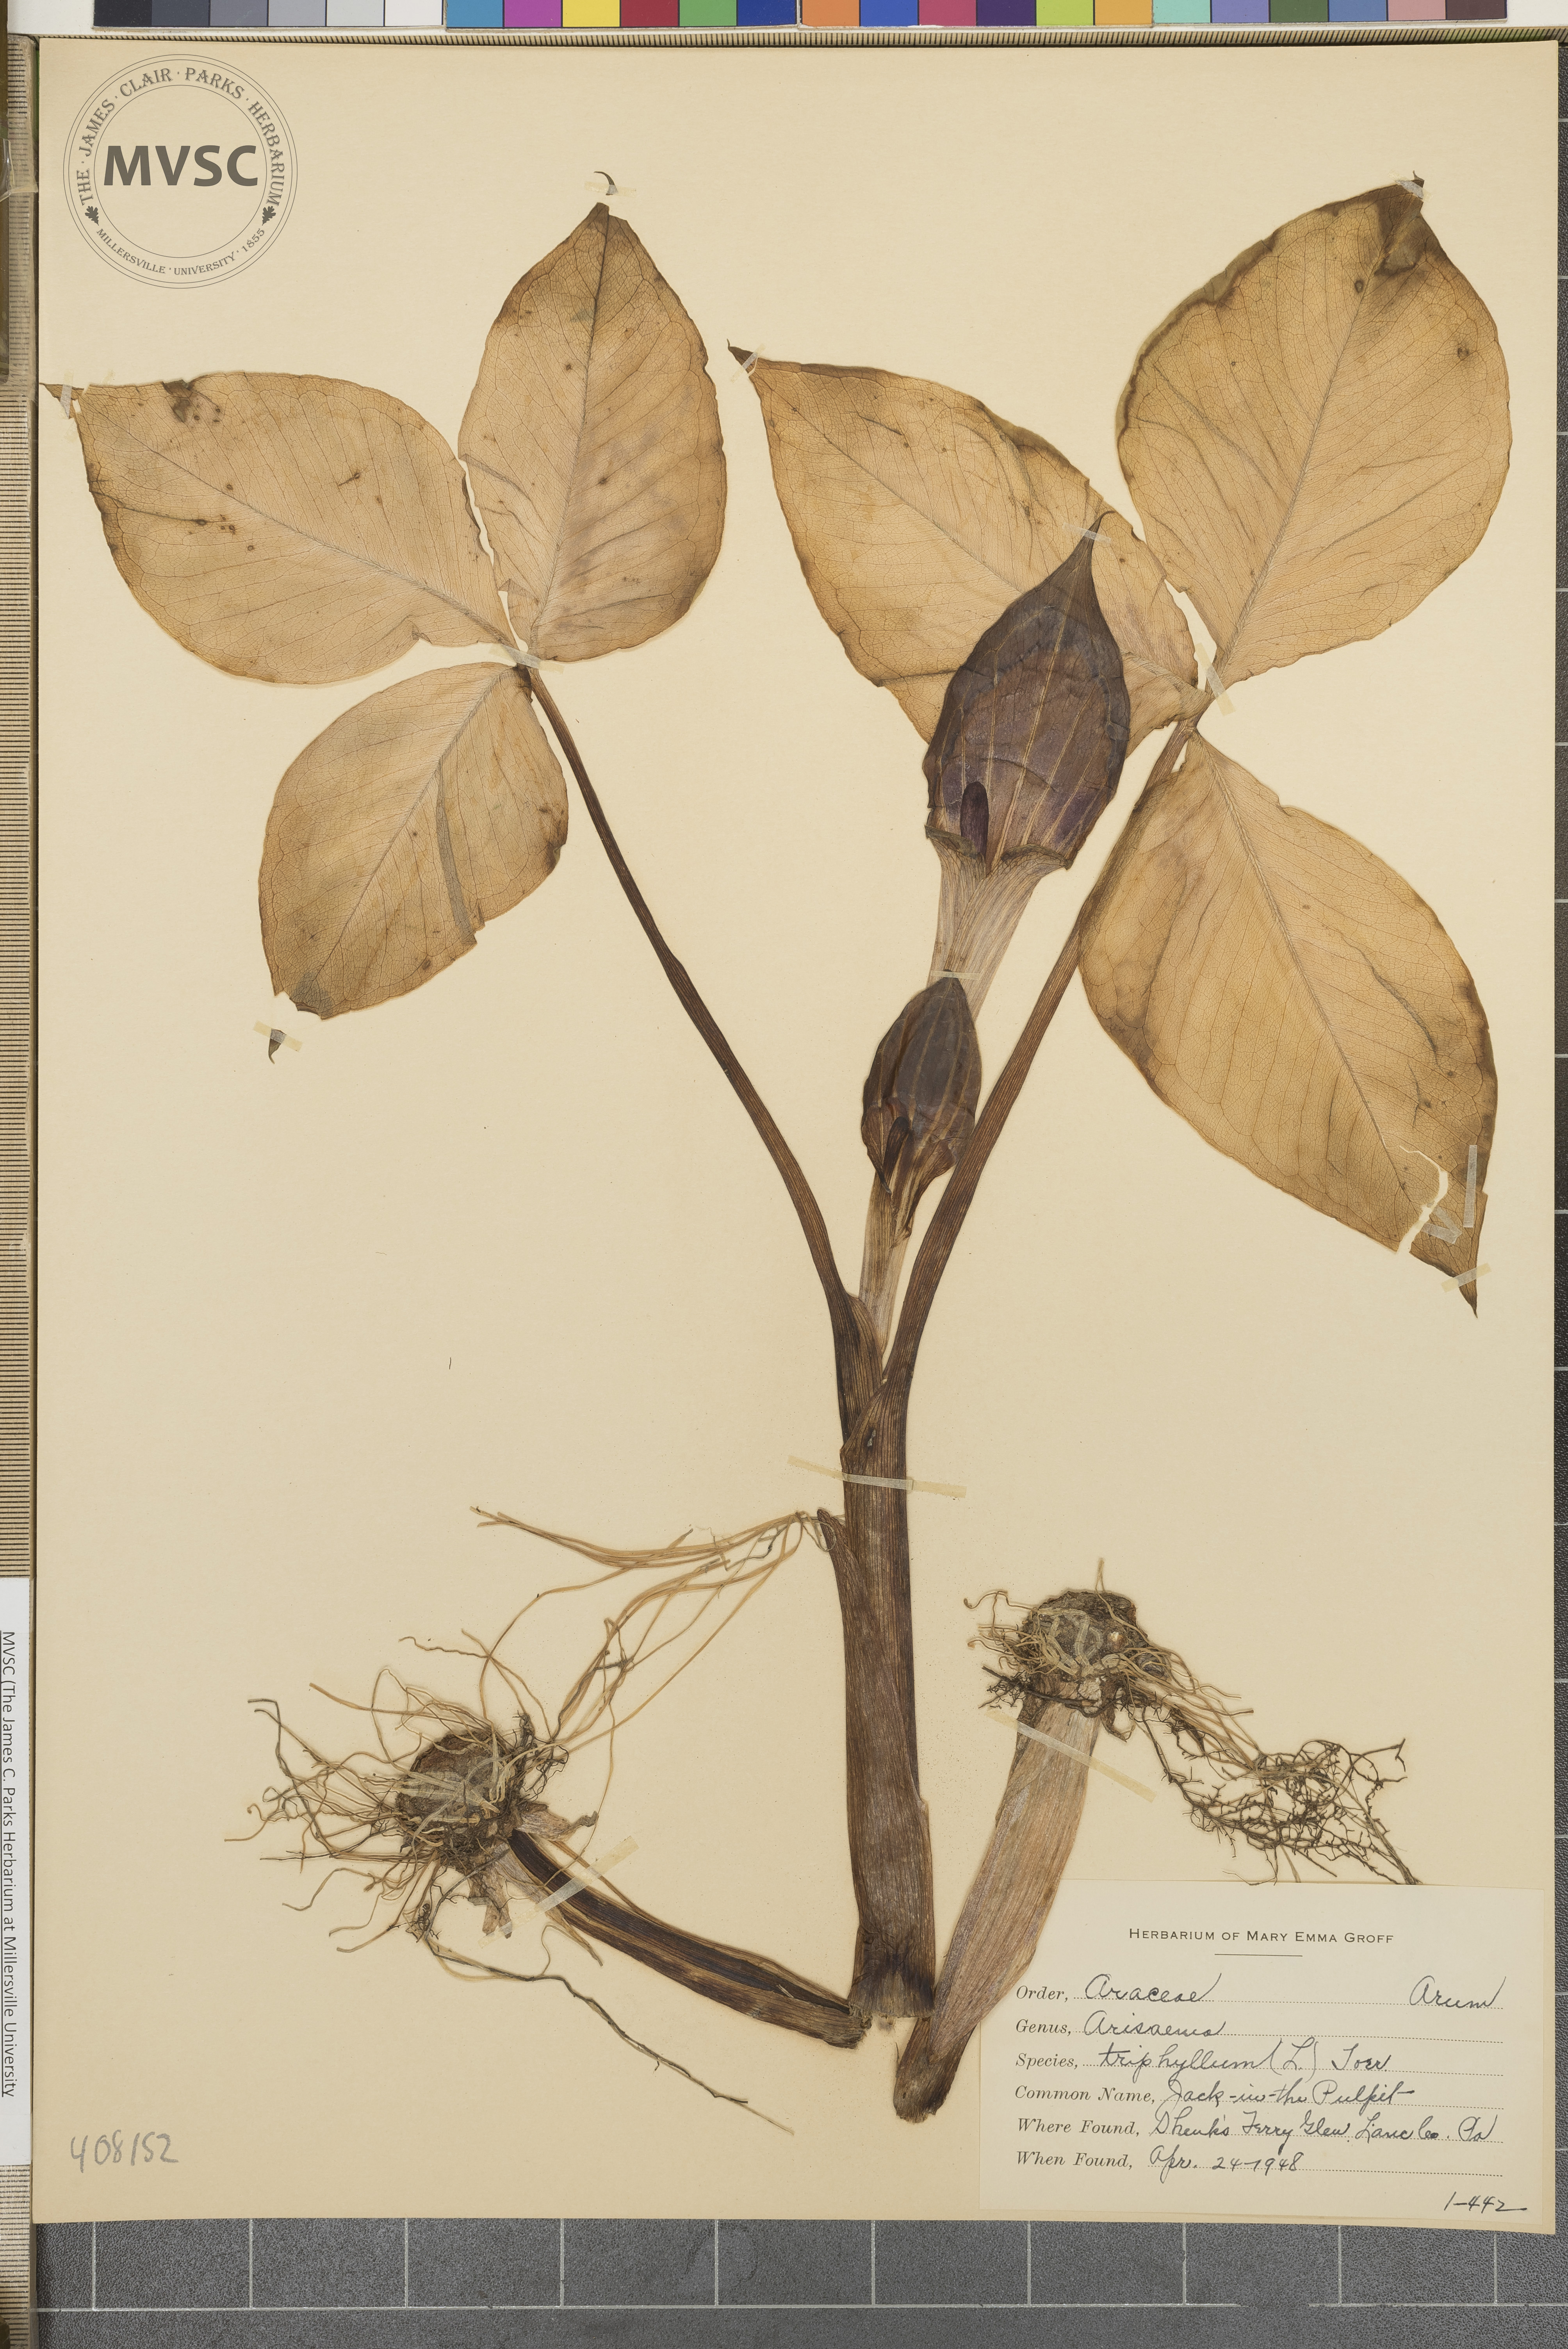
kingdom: Plantae
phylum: Tracheophyta
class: Liliopsida
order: Alismatales
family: Araceae
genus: Arisaema
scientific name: Arisaema triphyllum
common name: Jack-in-the-Pulpit
